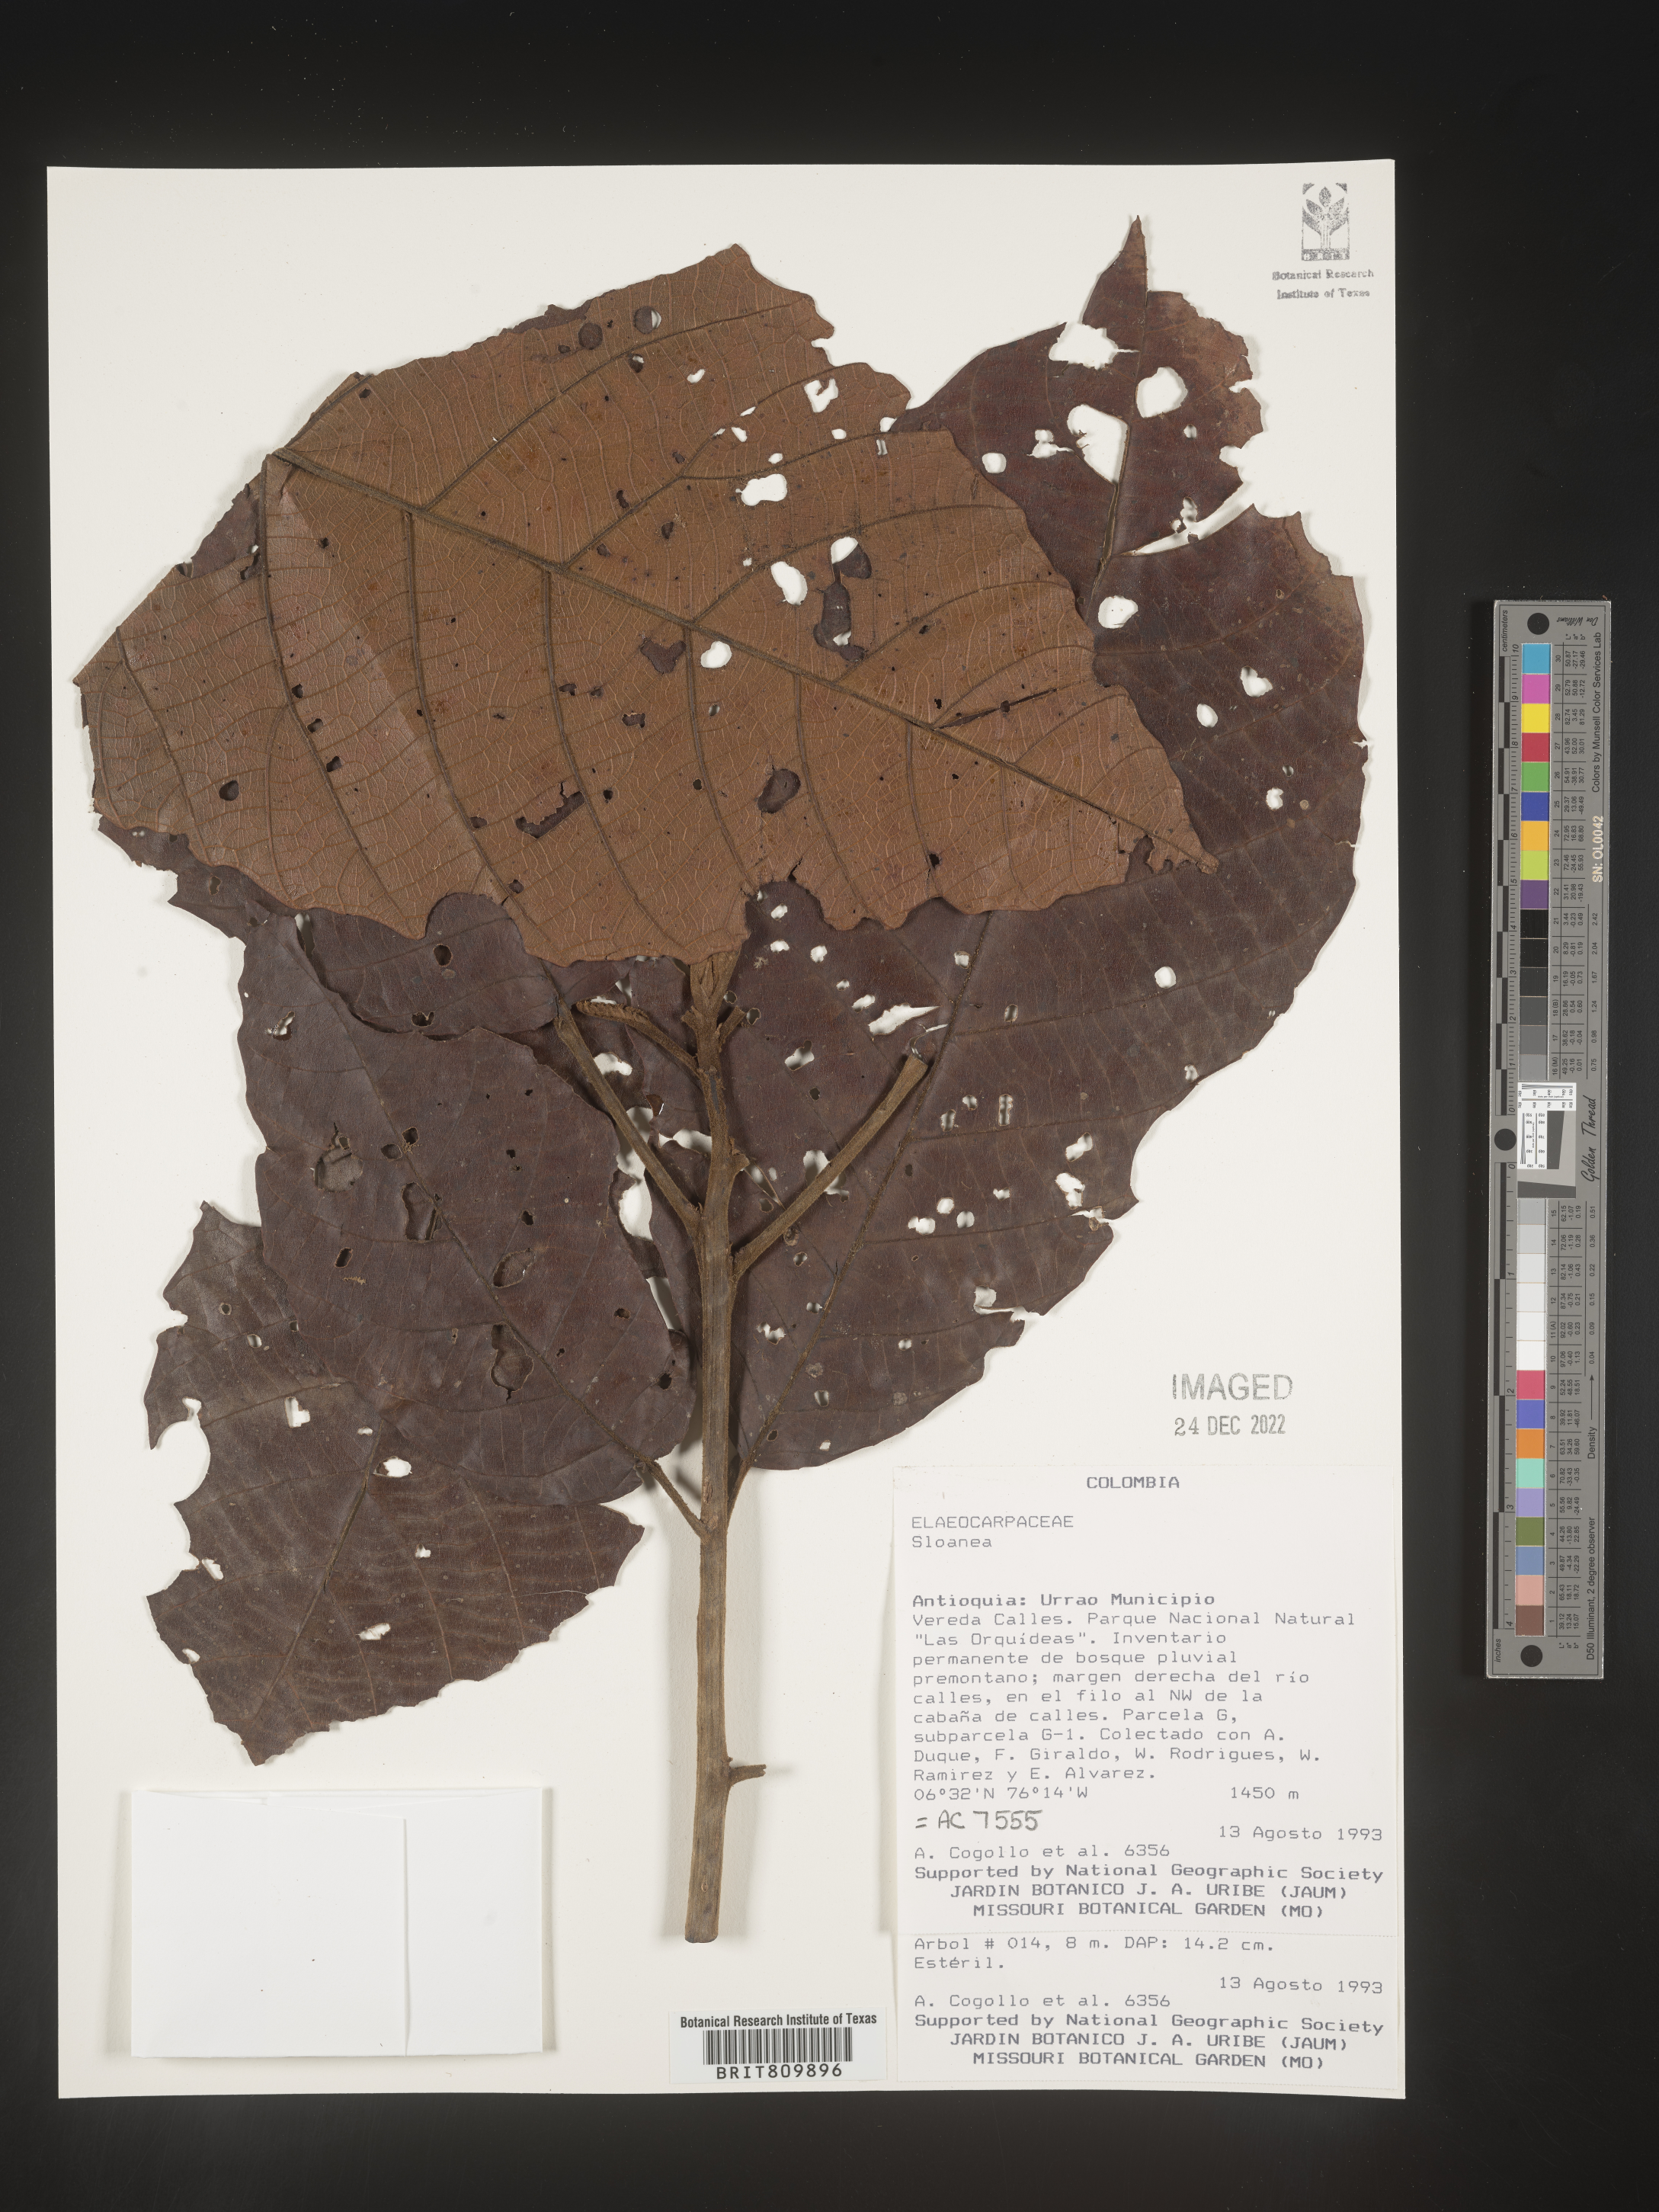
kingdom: Plantae
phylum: Tracheophyta
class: Magnoliopsida
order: Oxalidales
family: Elaeocarpaceae
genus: Sloanea
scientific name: Sloanea
